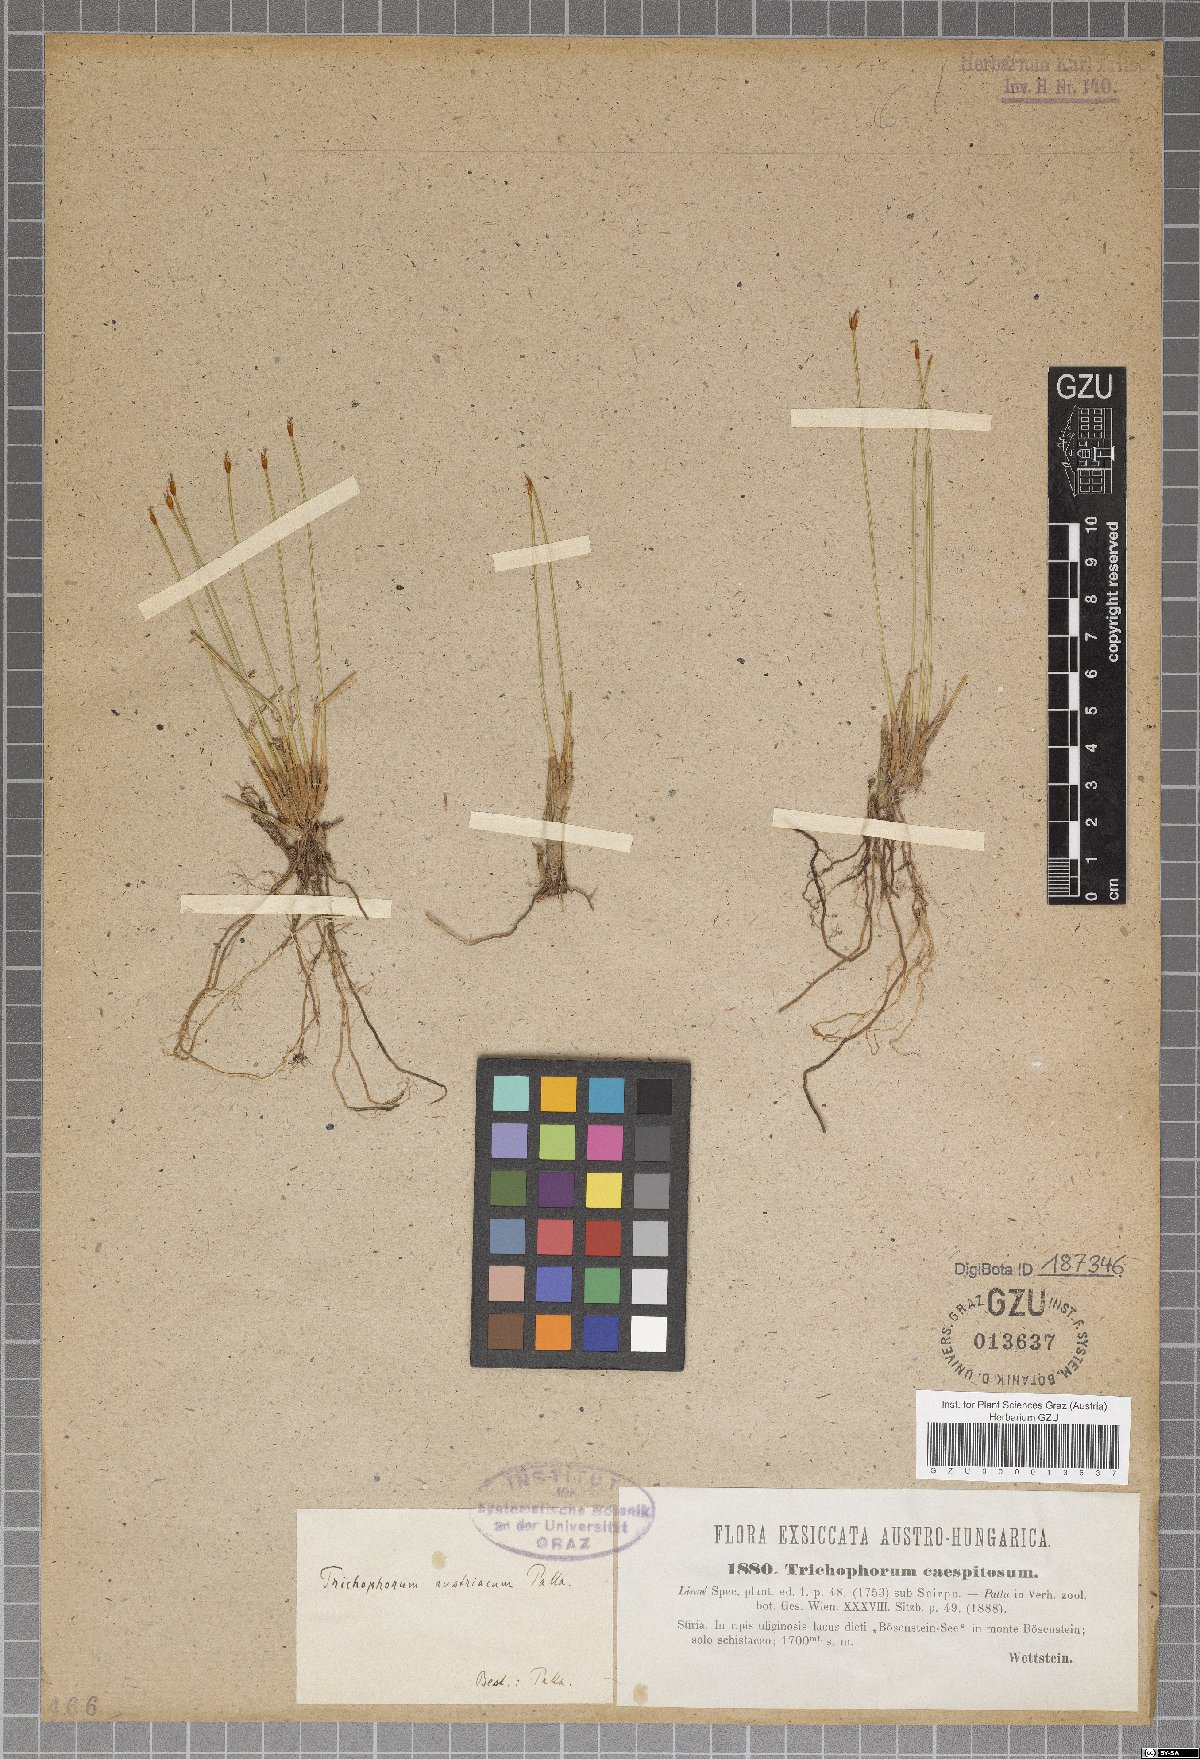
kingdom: Plantae
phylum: Tracheophyta
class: Liliopsida
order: Poales
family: Cyperaceae
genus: Trichophorum
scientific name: Trichophorum cespitosum
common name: Cespitose bulrush
